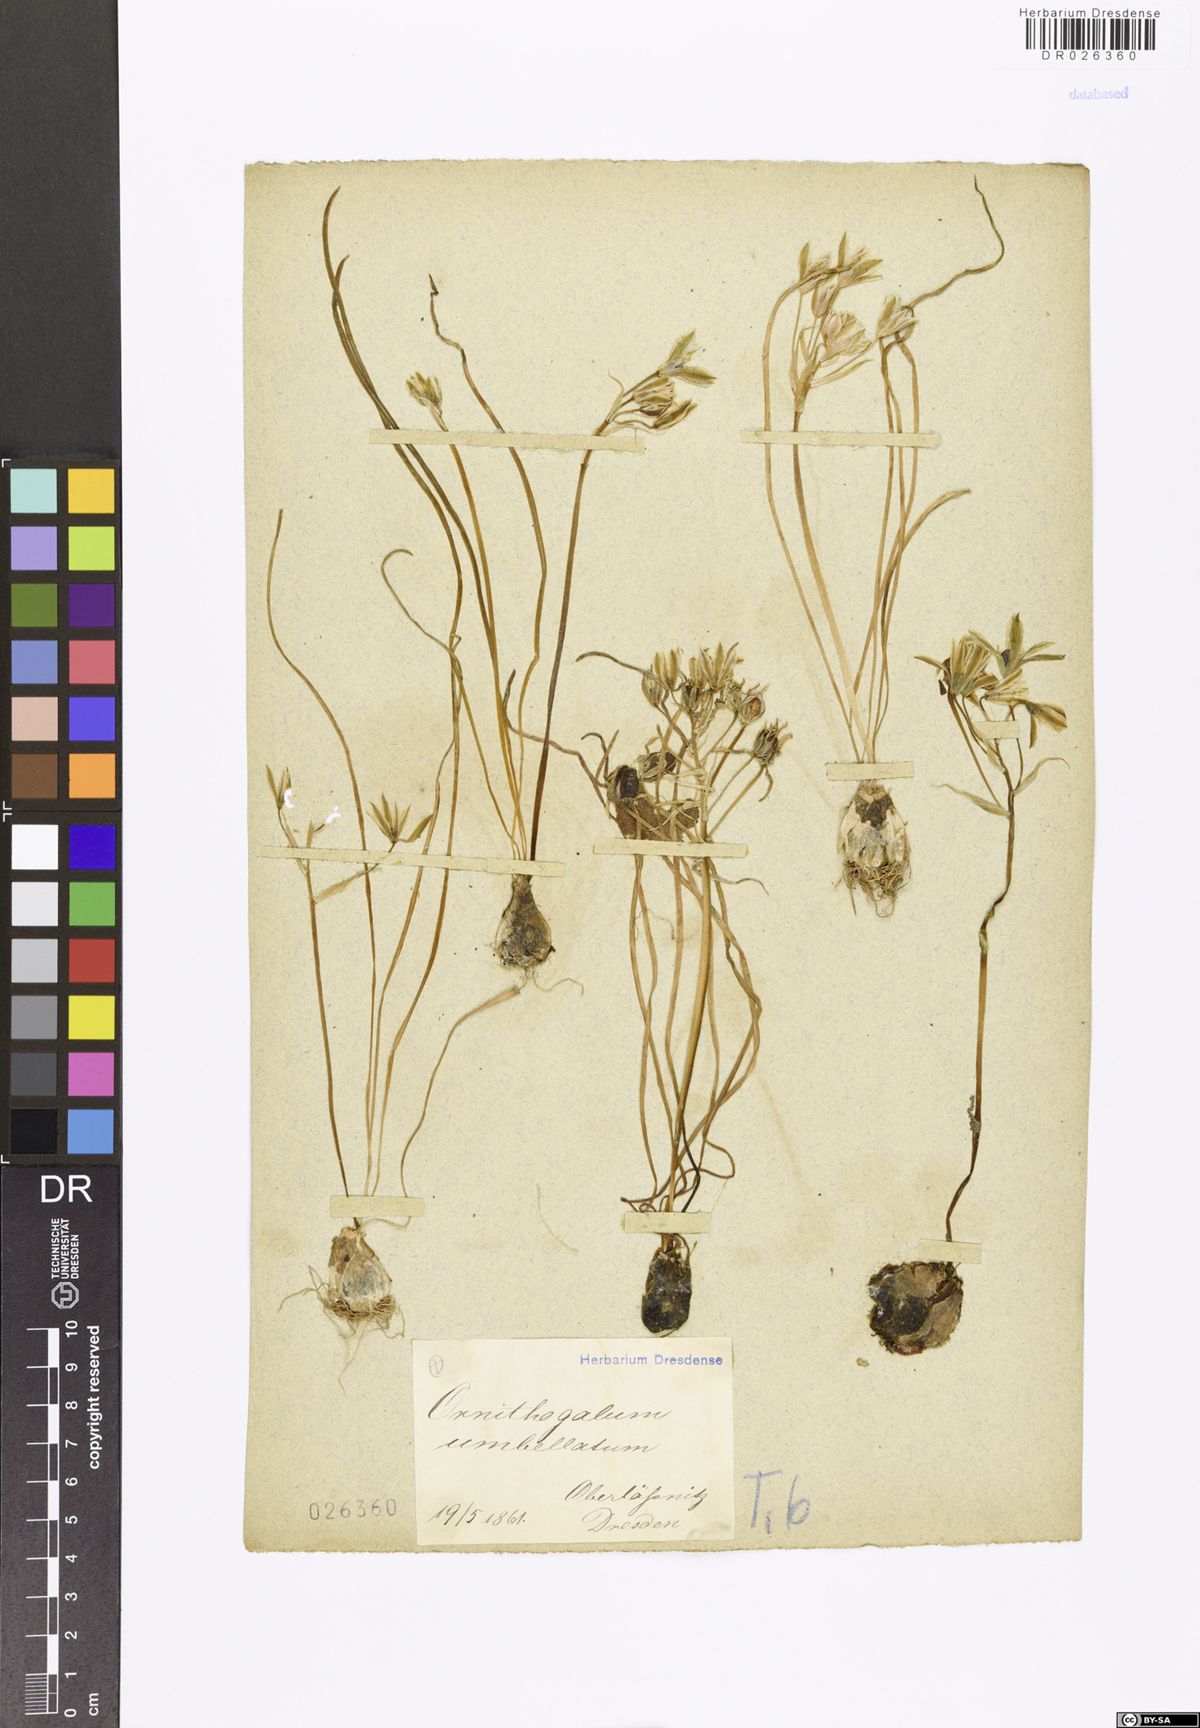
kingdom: Plantae
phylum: Tracheophyta
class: Liliopsida
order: Asparagales
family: Asparagaceae
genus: Ornithogalum
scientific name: Ornithogalum umbellatum
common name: Garden star-of-bethlehem
